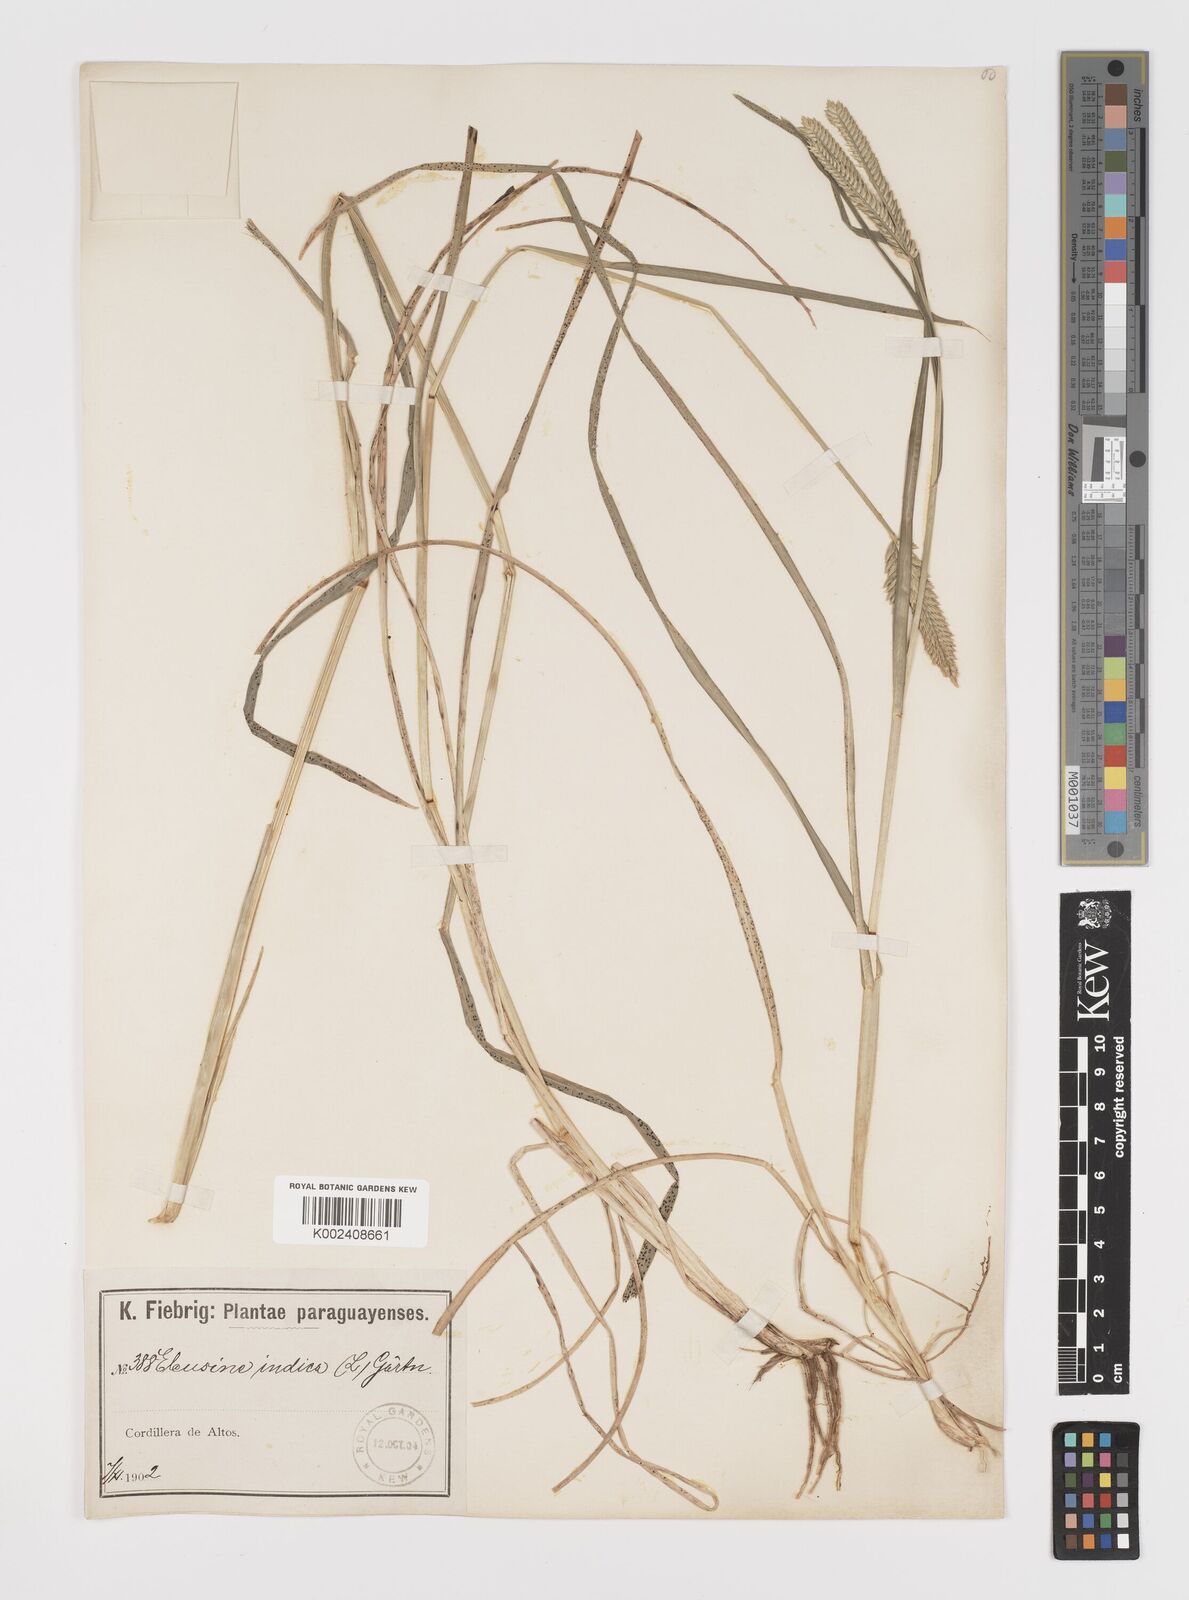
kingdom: Plantae
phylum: Tracheophyta
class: Liliopsida
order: Poales
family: Poaceae
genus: Eleusine
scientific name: Eleusine tristachya
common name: American yard-grass
